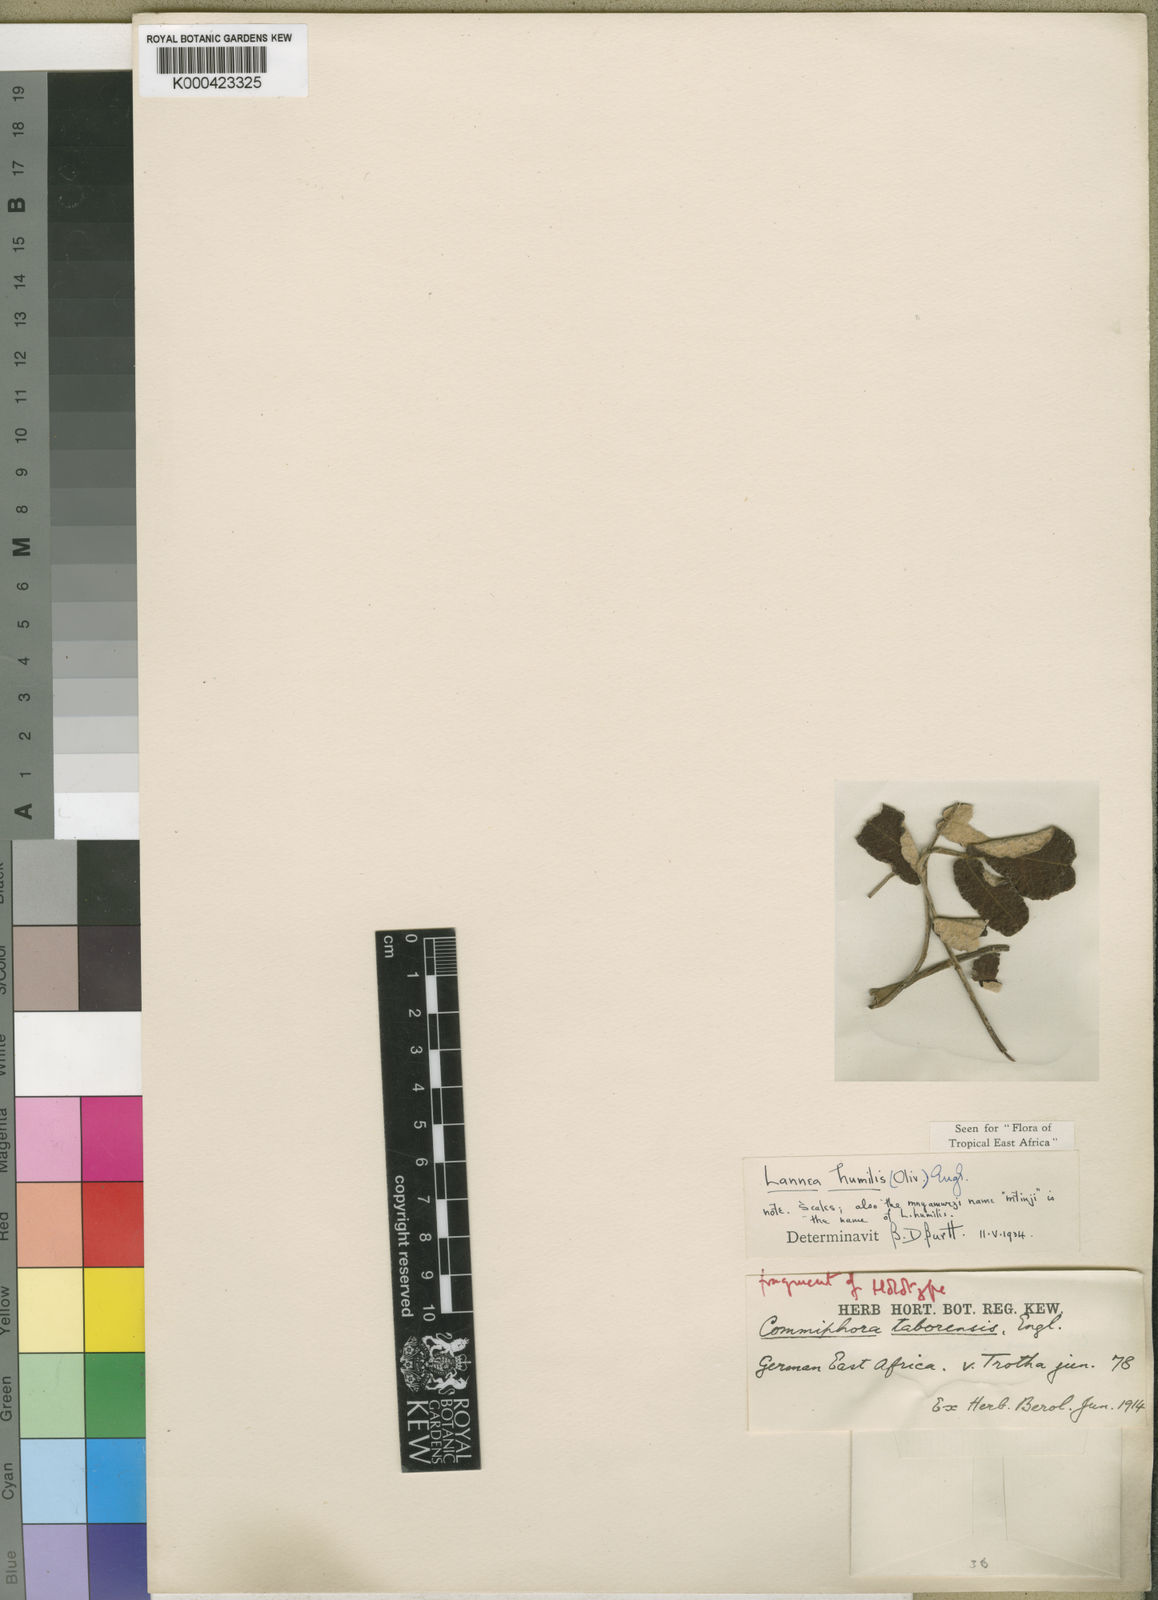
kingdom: Plantae
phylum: Tracheophyta
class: Magnoliopsida
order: Sapindales
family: Anacardiaceae
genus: Lannea
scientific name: Lannea humilis
